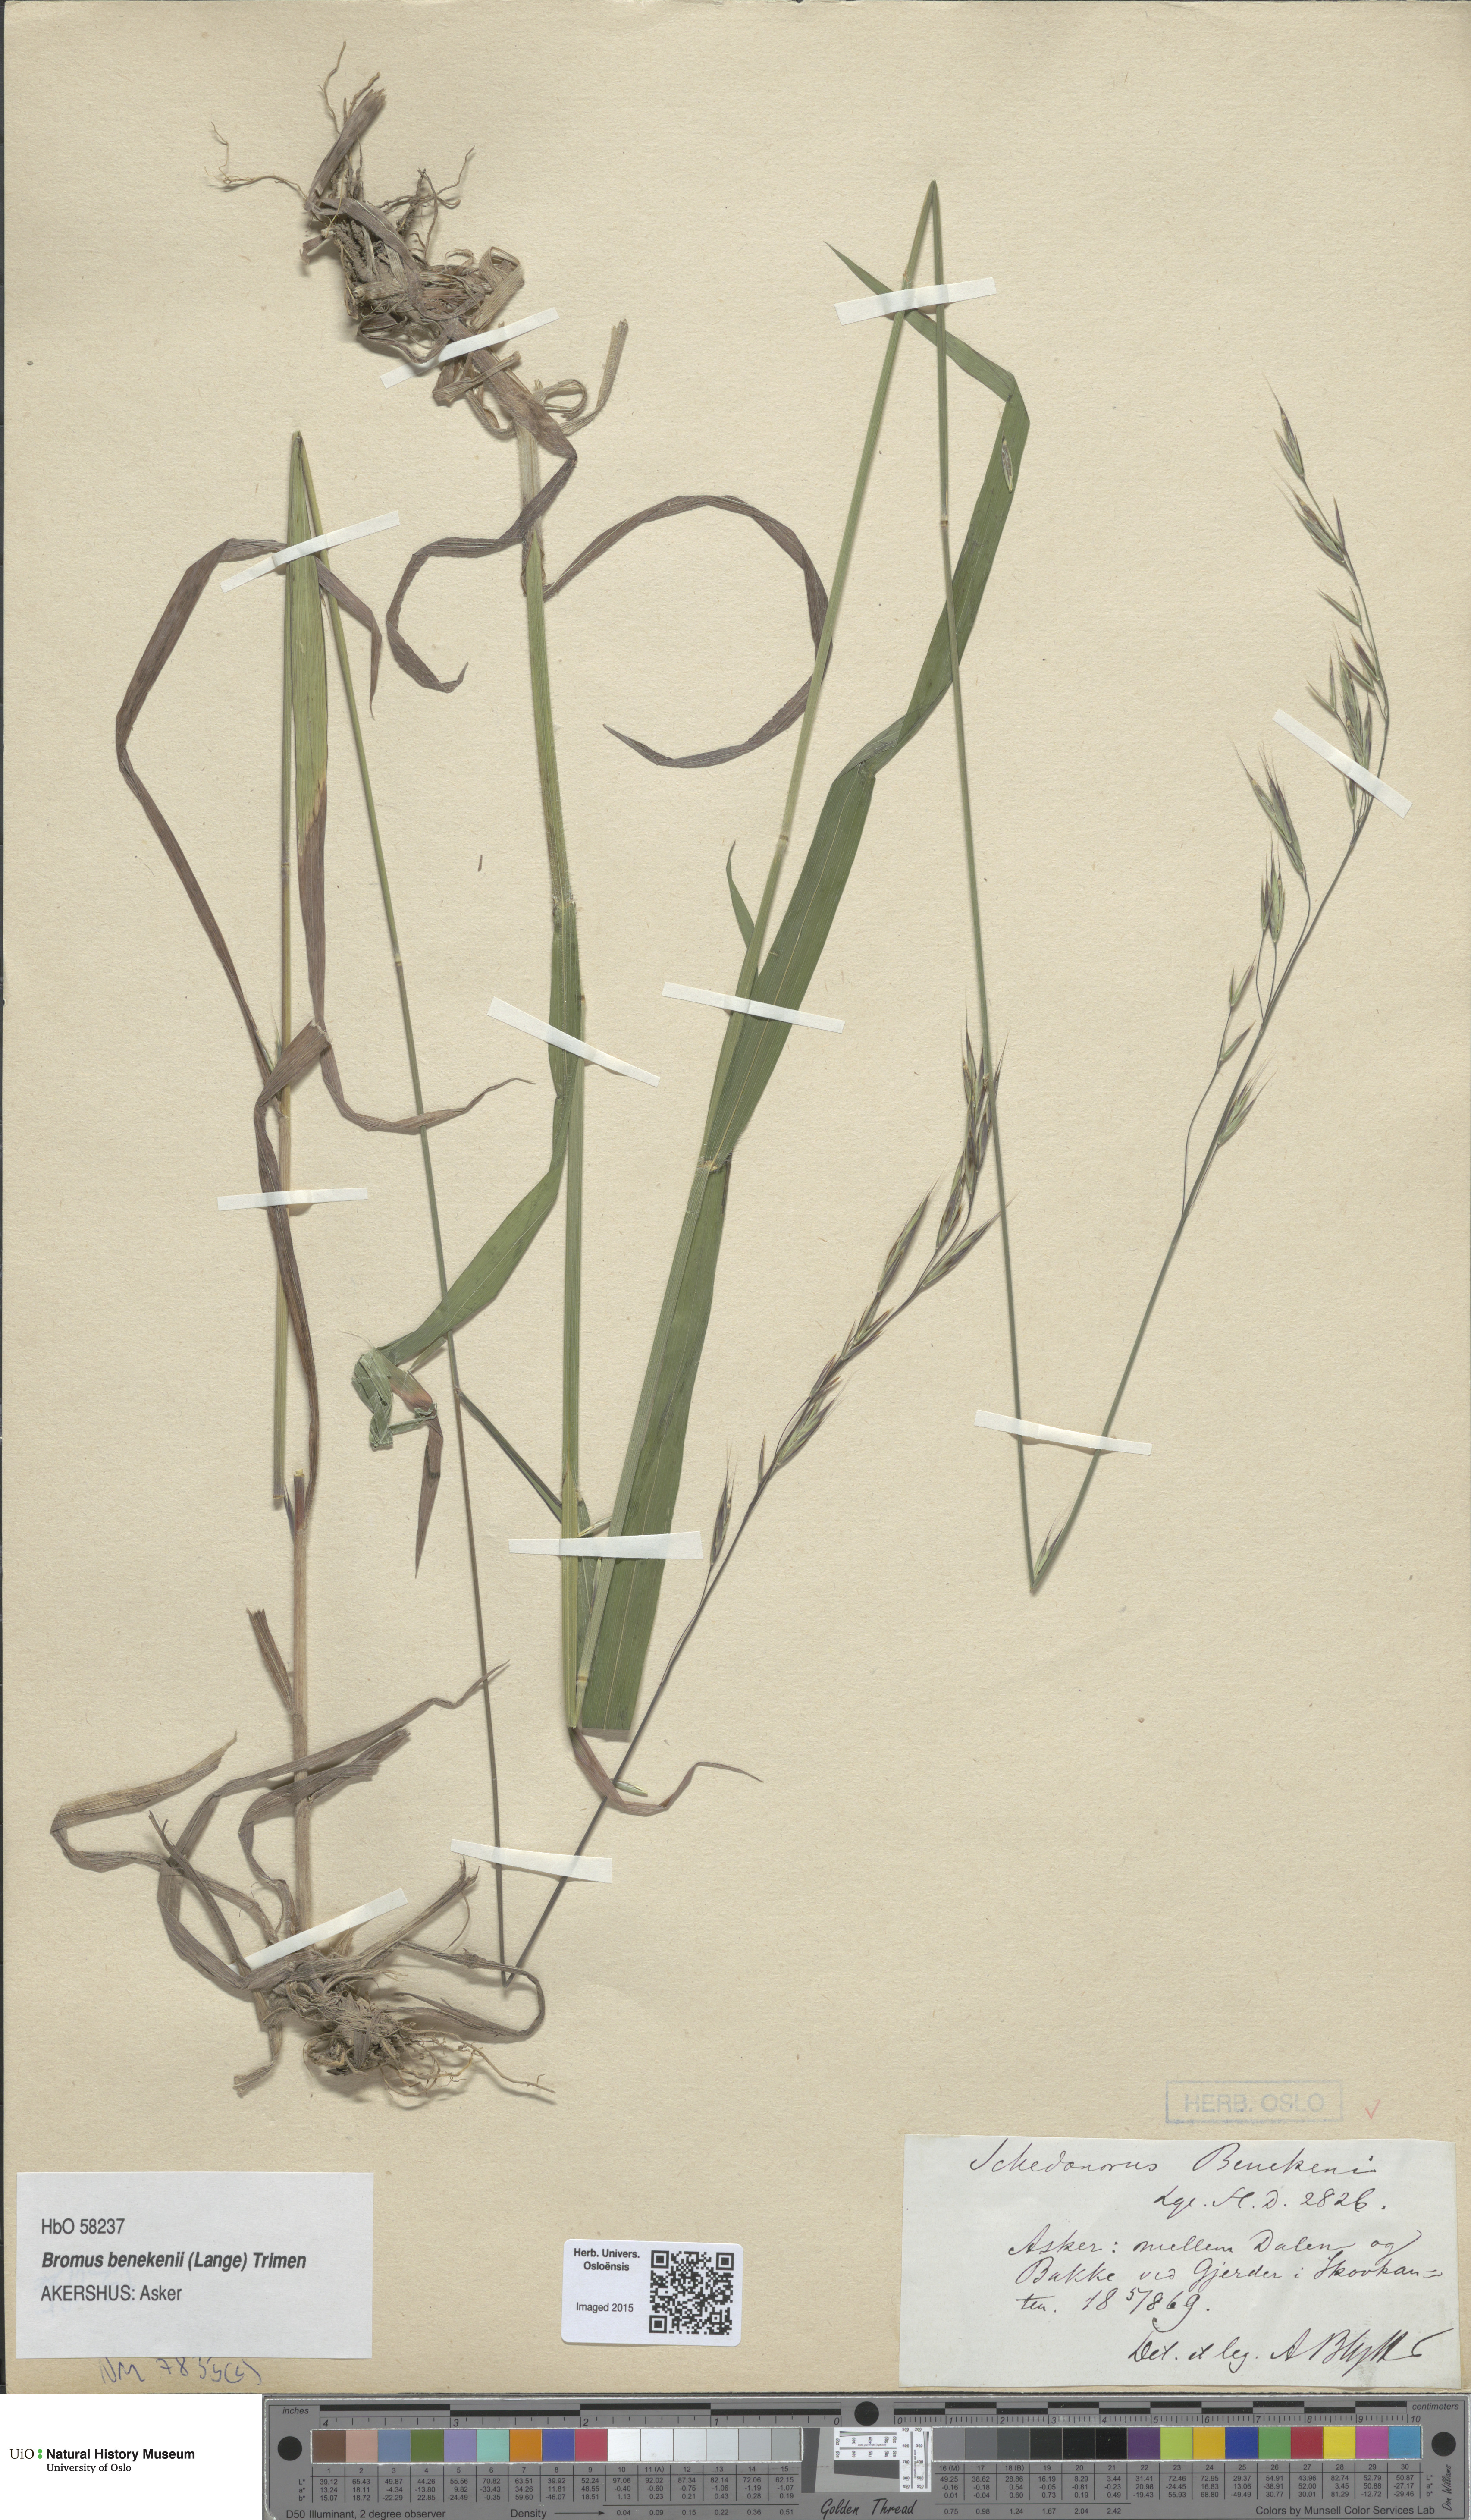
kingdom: Plantae
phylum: Tracheophyta
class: Liliopsida
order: Poales
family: Poaceae
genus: Bromus
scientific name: Bromus benekenii
